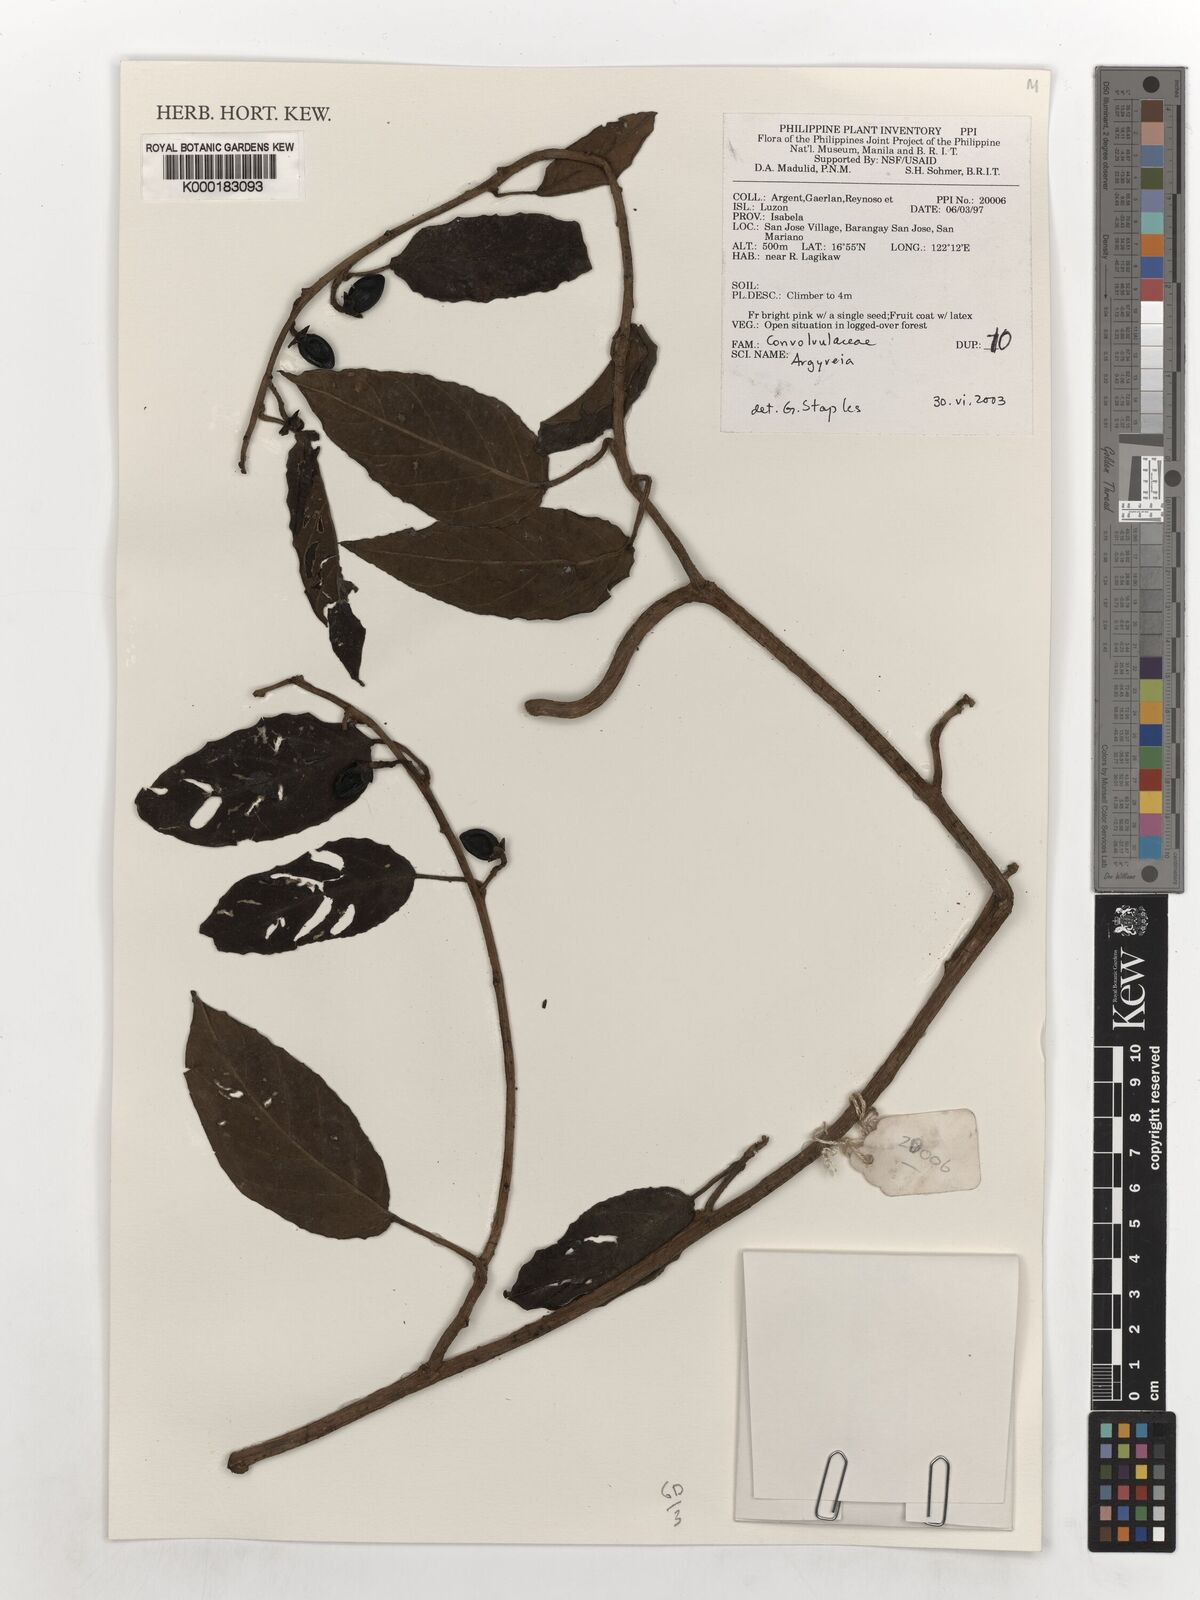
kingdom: Plantae
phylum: Tracheophyta
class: Magnoliopsida
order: Solanales
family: Convolvulaceae
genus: Argyreia
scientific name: Argyreia
